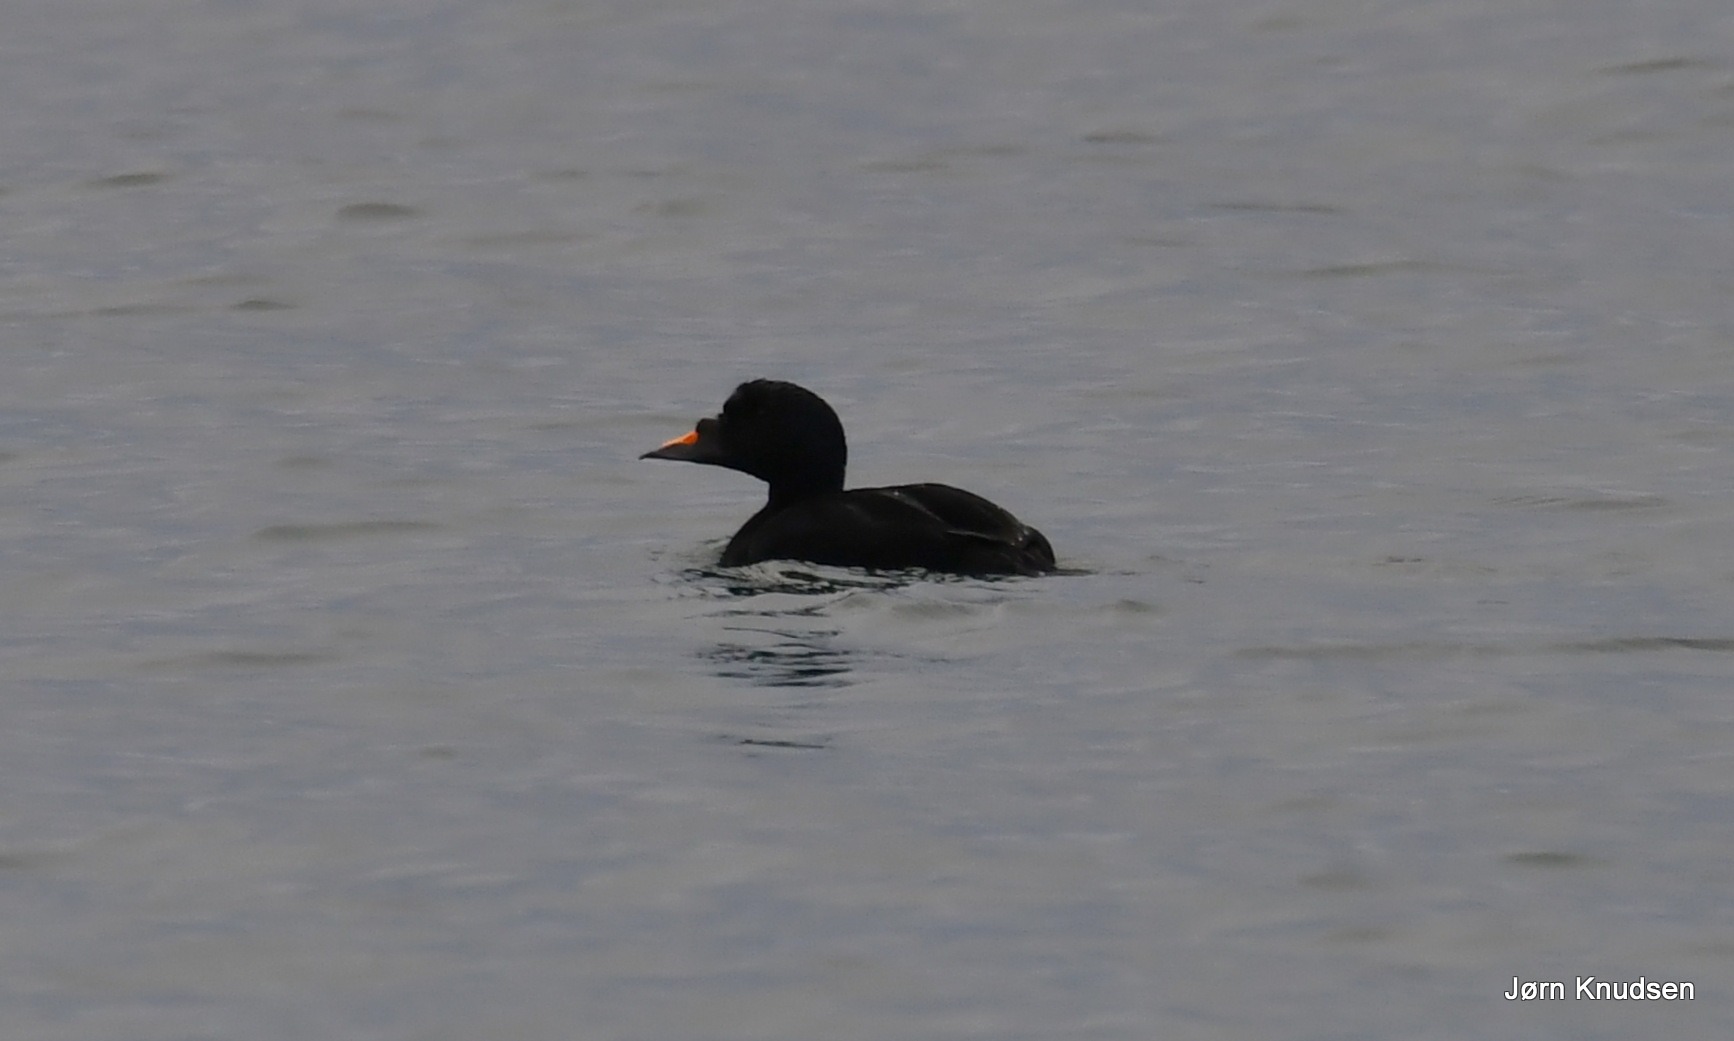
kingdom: Animalia
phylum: Chordata
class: Aves
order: Anseriformes
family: Anatidae
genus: Melanitta
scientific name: Melanitta nigra
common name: Sortand
